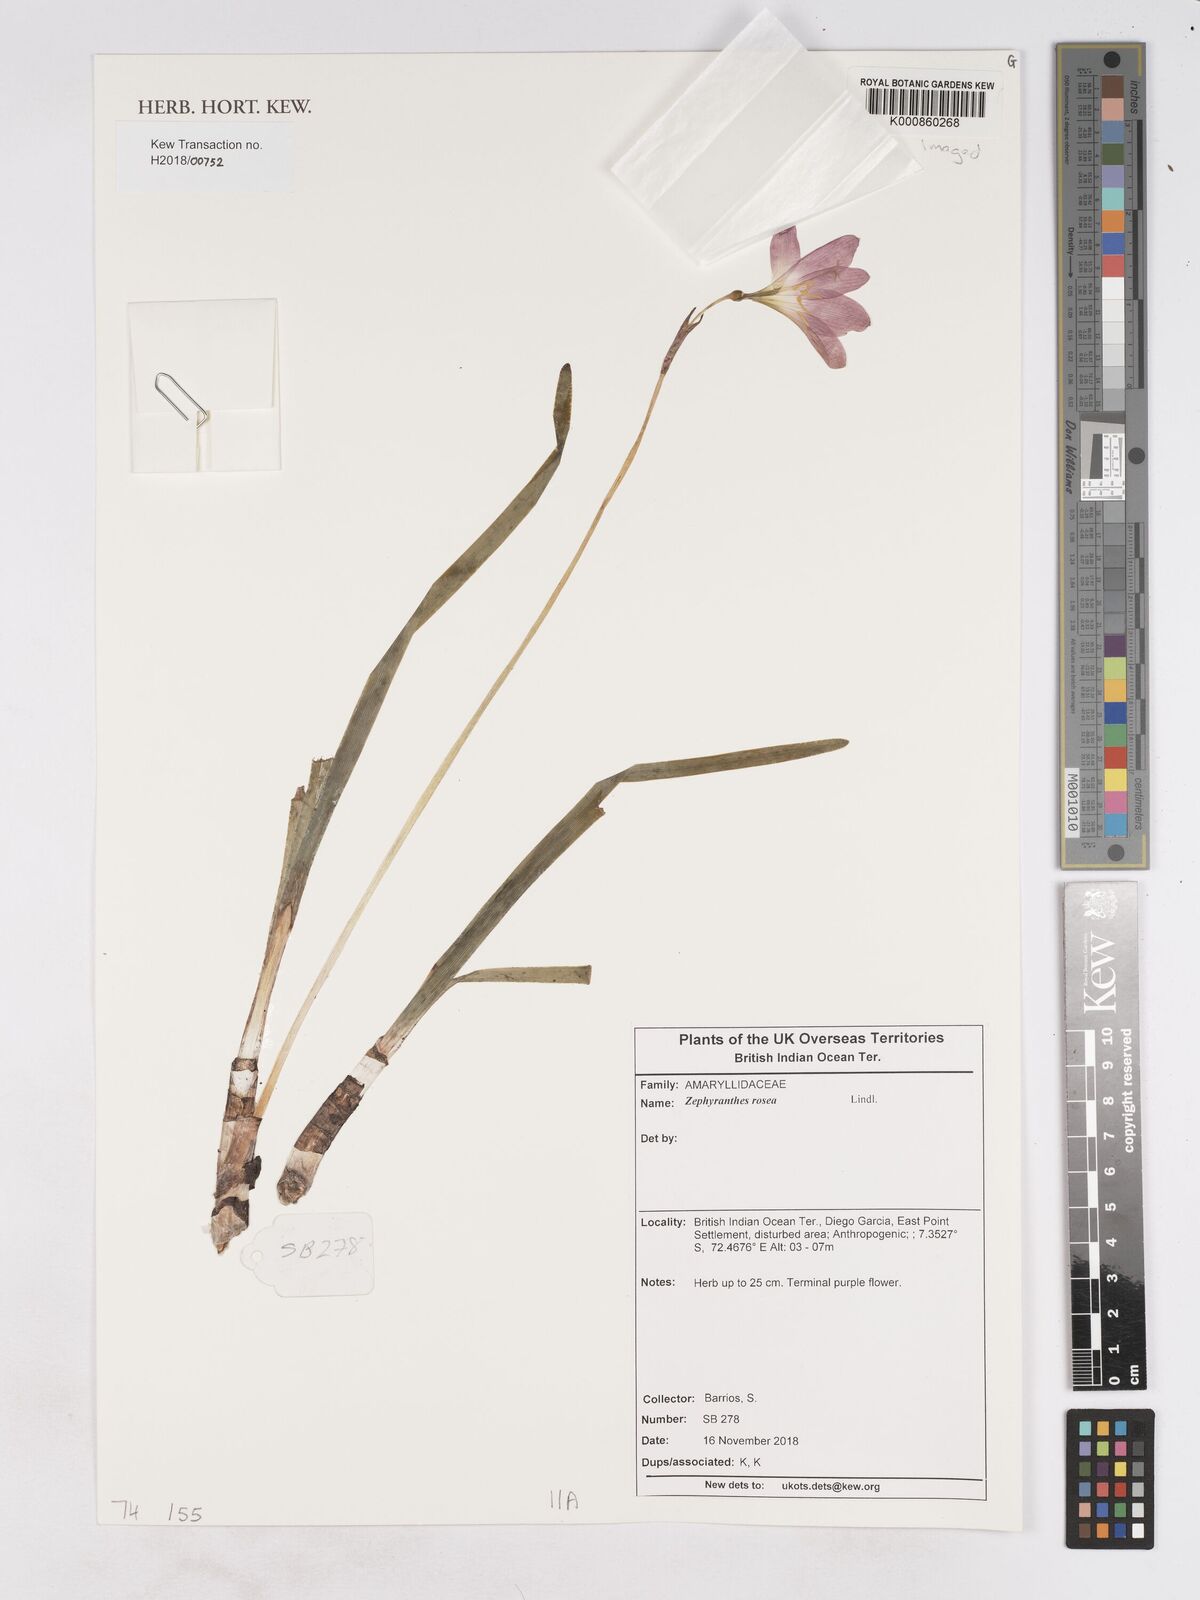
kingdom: Plantae
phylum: Tracheophyta
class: Liliopsida
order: Asparagales
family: Amaryllidaceae
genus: Zephyranthes
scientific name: Zephyranthes rosea
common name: Cuban zephyrlily
